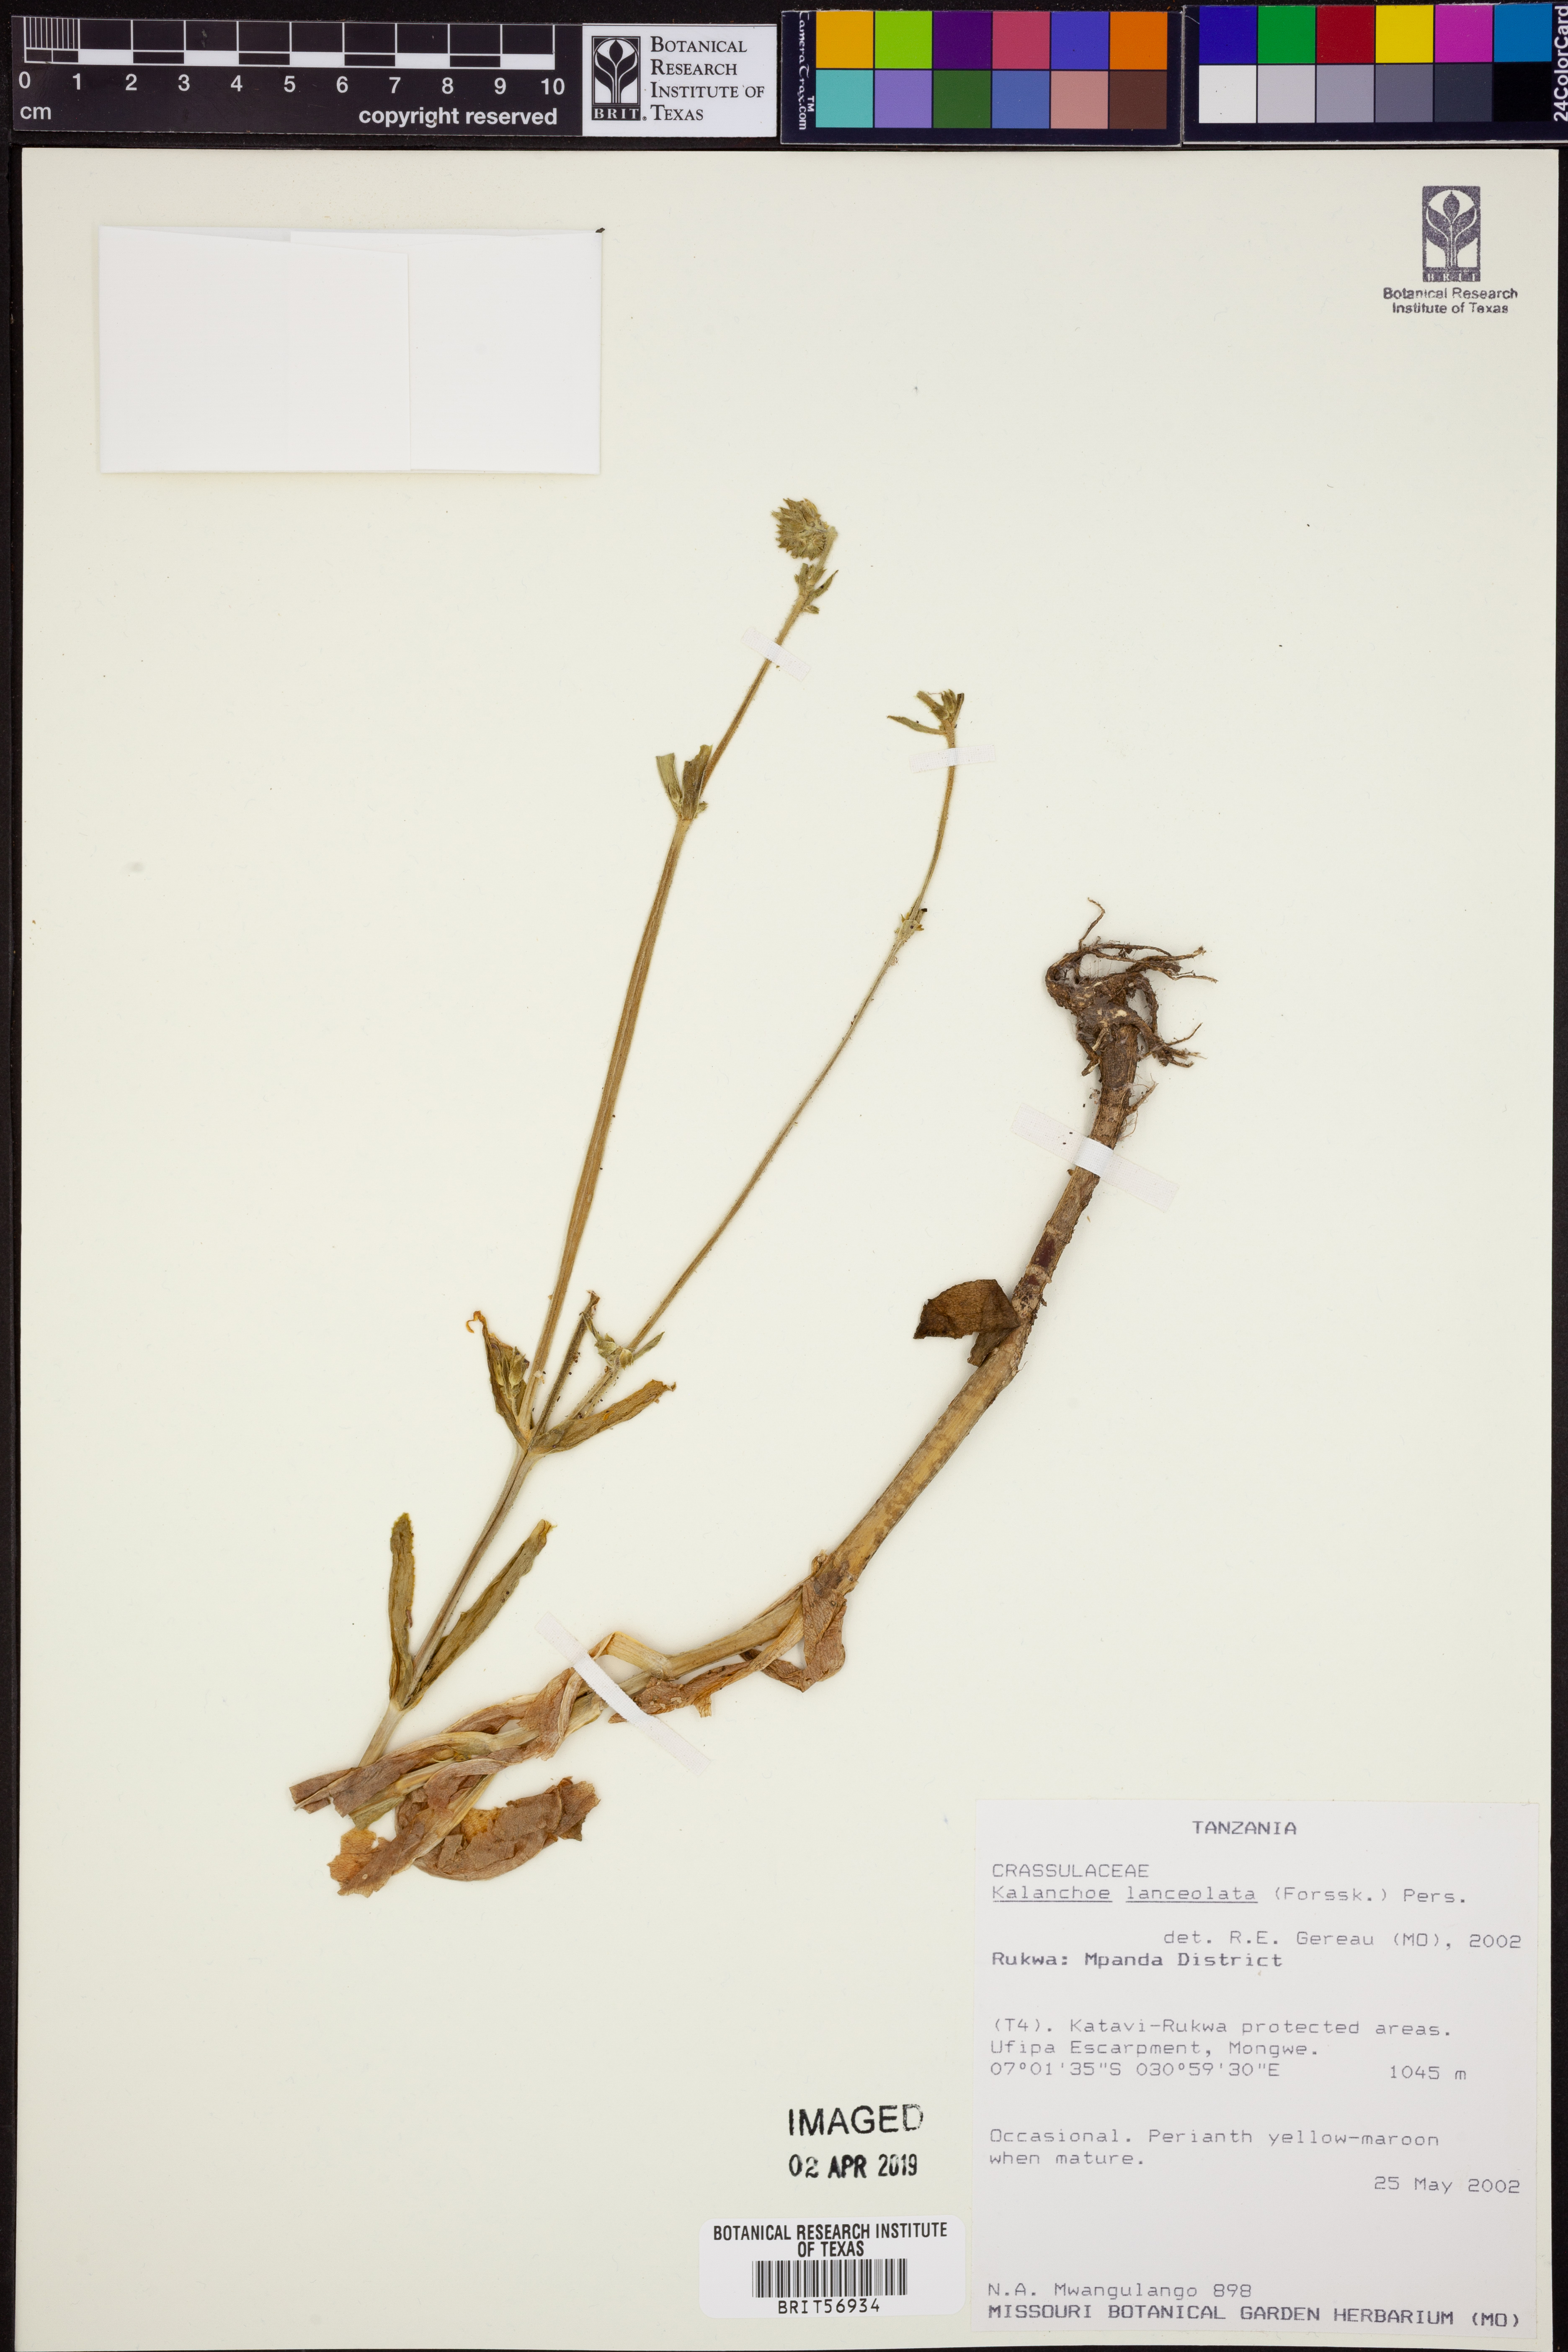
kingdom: Plantae
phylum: Tracheophyta
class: Magnoliopsida
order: Saxifragales
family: Crassulaceae
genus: Kalanchoe
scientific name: Kalanchoe lanceolata
